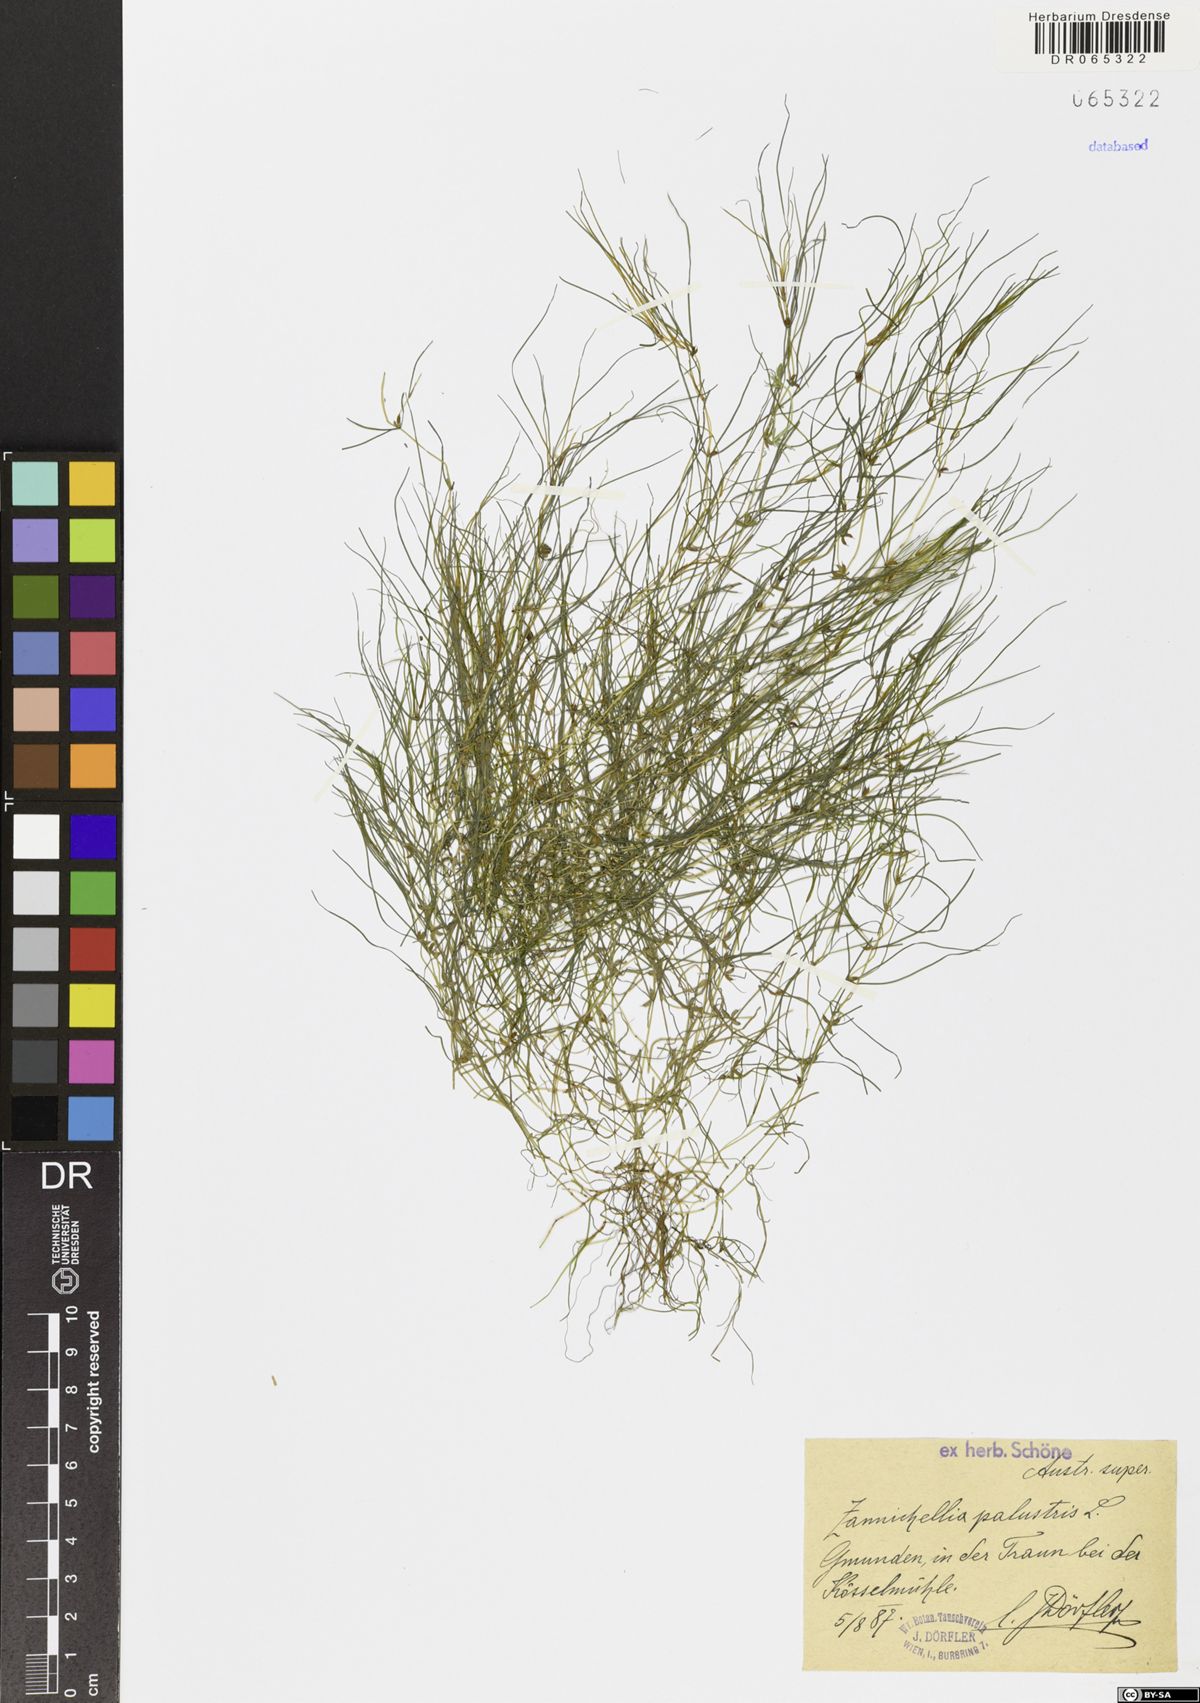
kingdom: Plantae
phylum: Tracheophyta
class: Liliopsida
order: Alismatales
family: Potamogetonaceae
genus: Zannichellia
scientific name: Zannichellia palustris
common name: Horned pondweed
